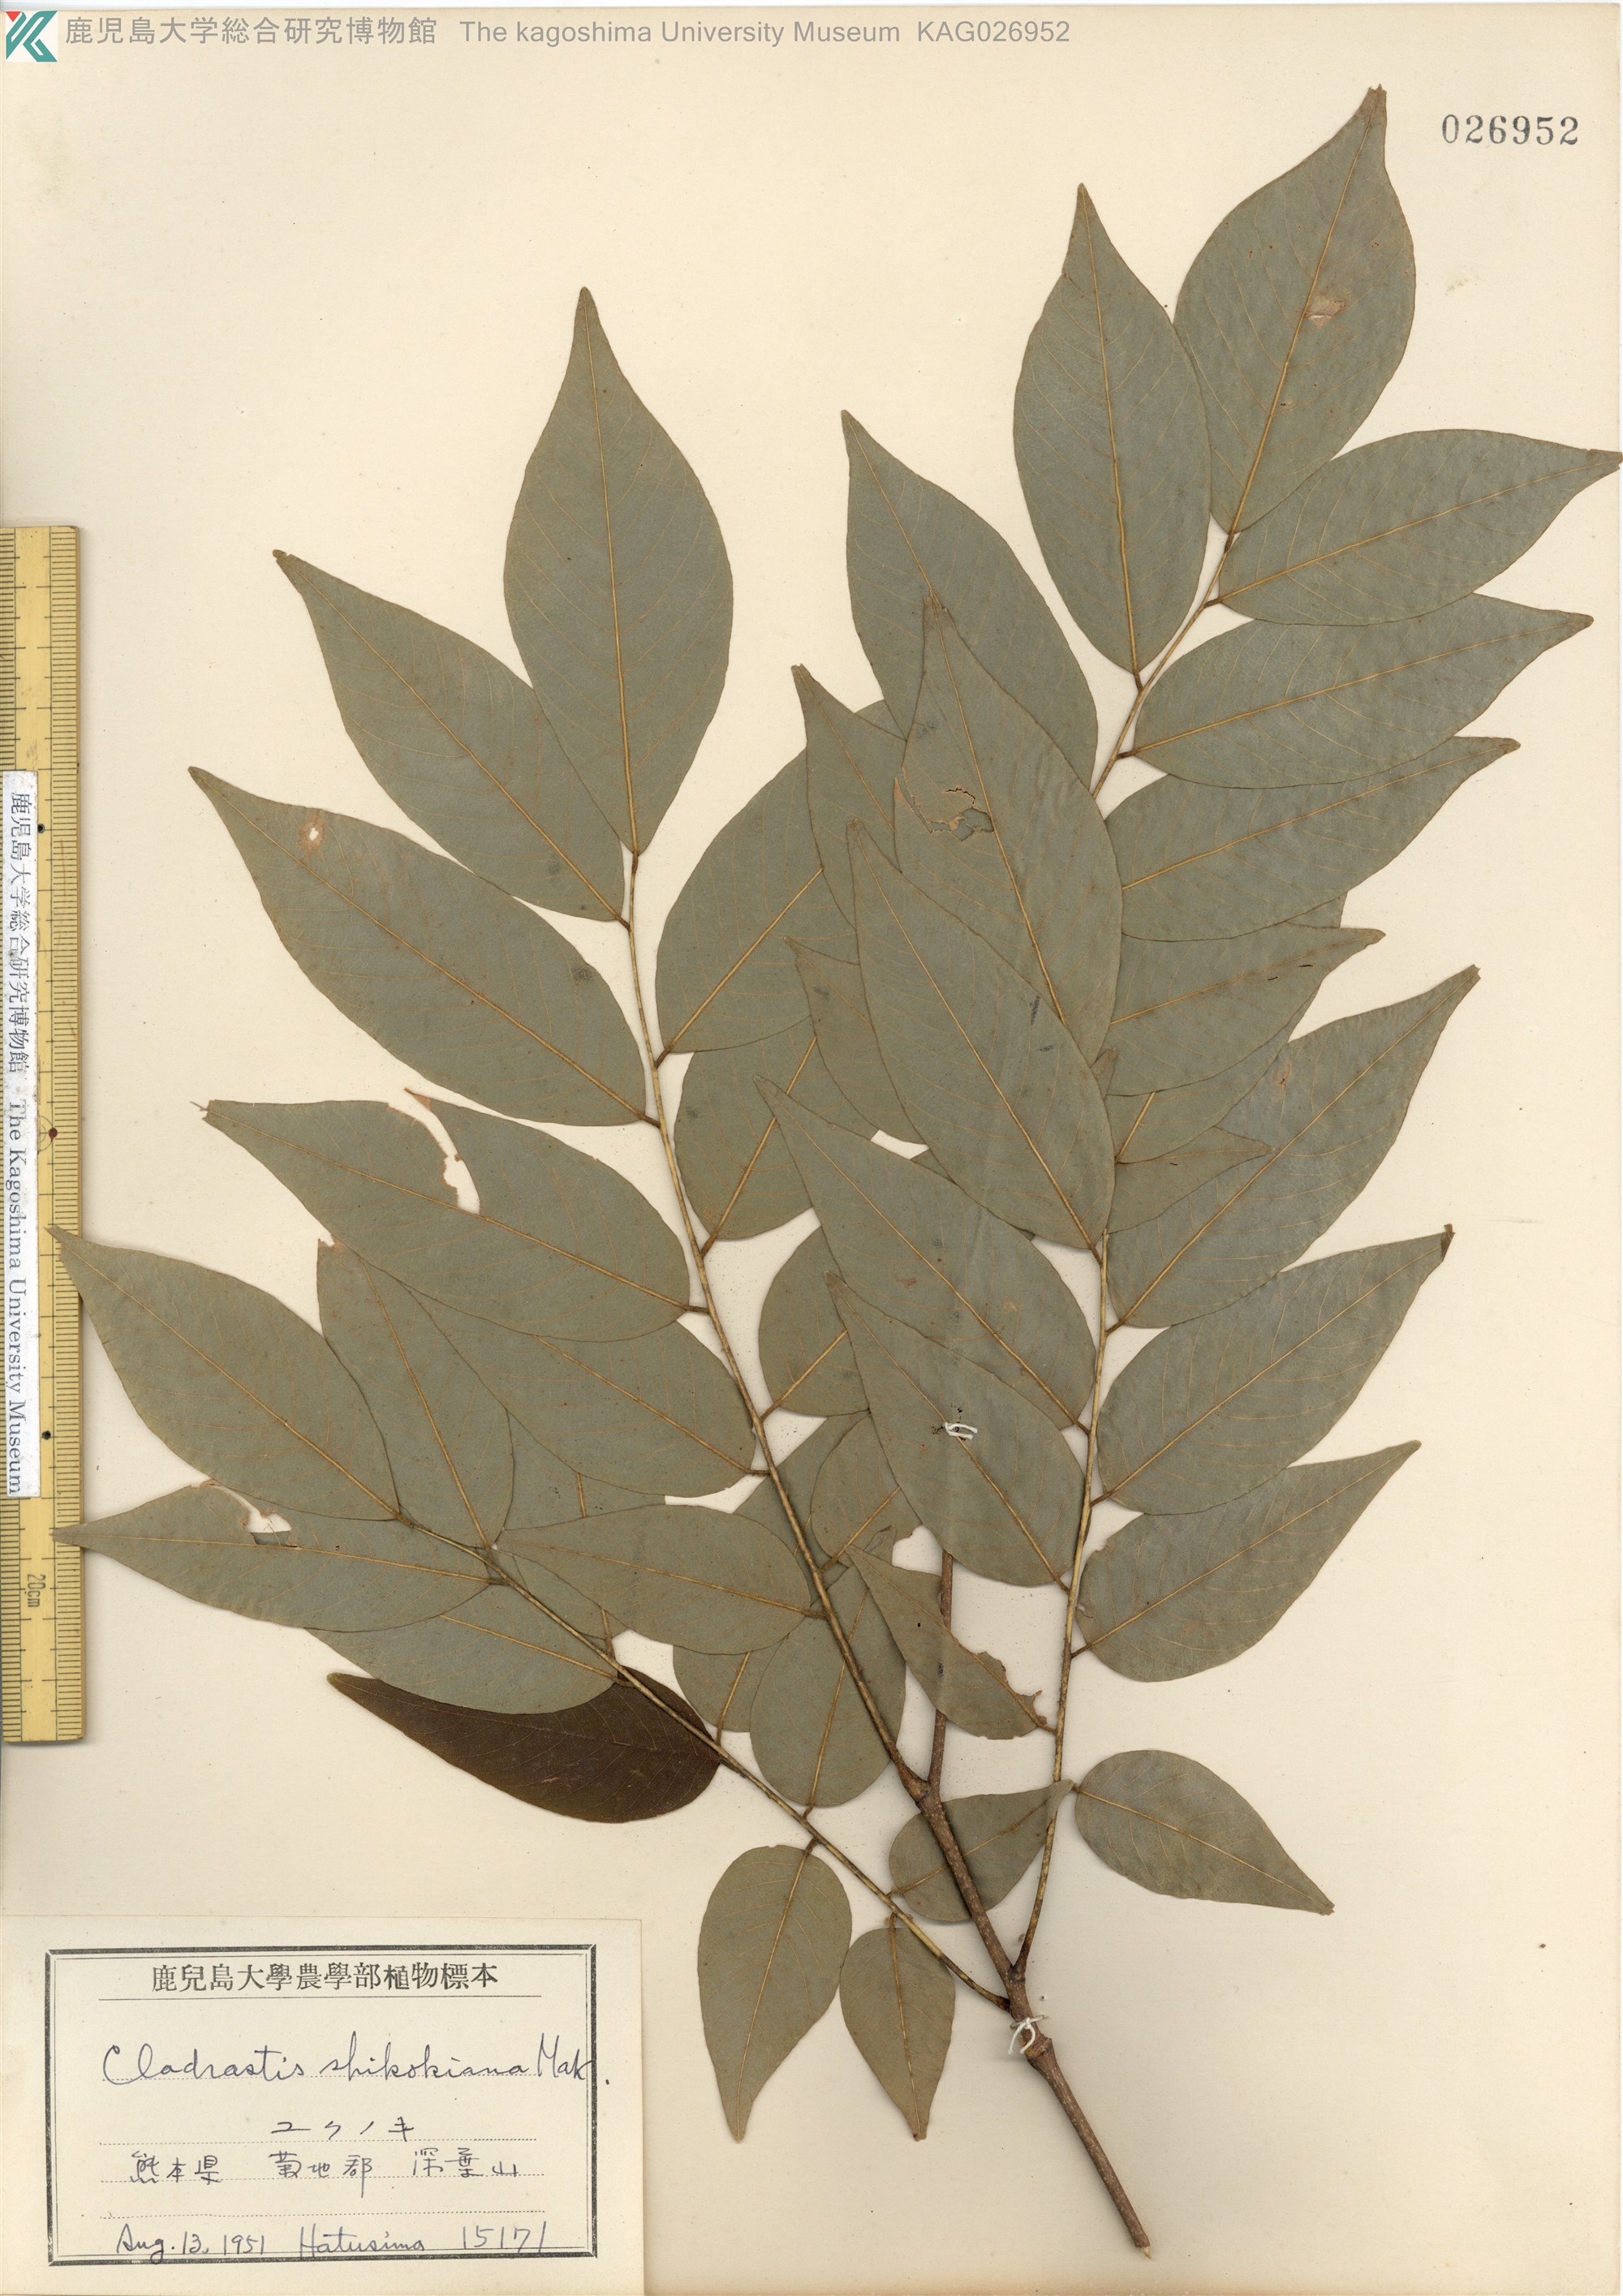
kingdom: Plantae
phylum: Tracheophyta
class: Magnoliopsida
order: Fabales
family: Fabaceae
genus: Cladrastis
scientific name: Cladrastis shikokiana
